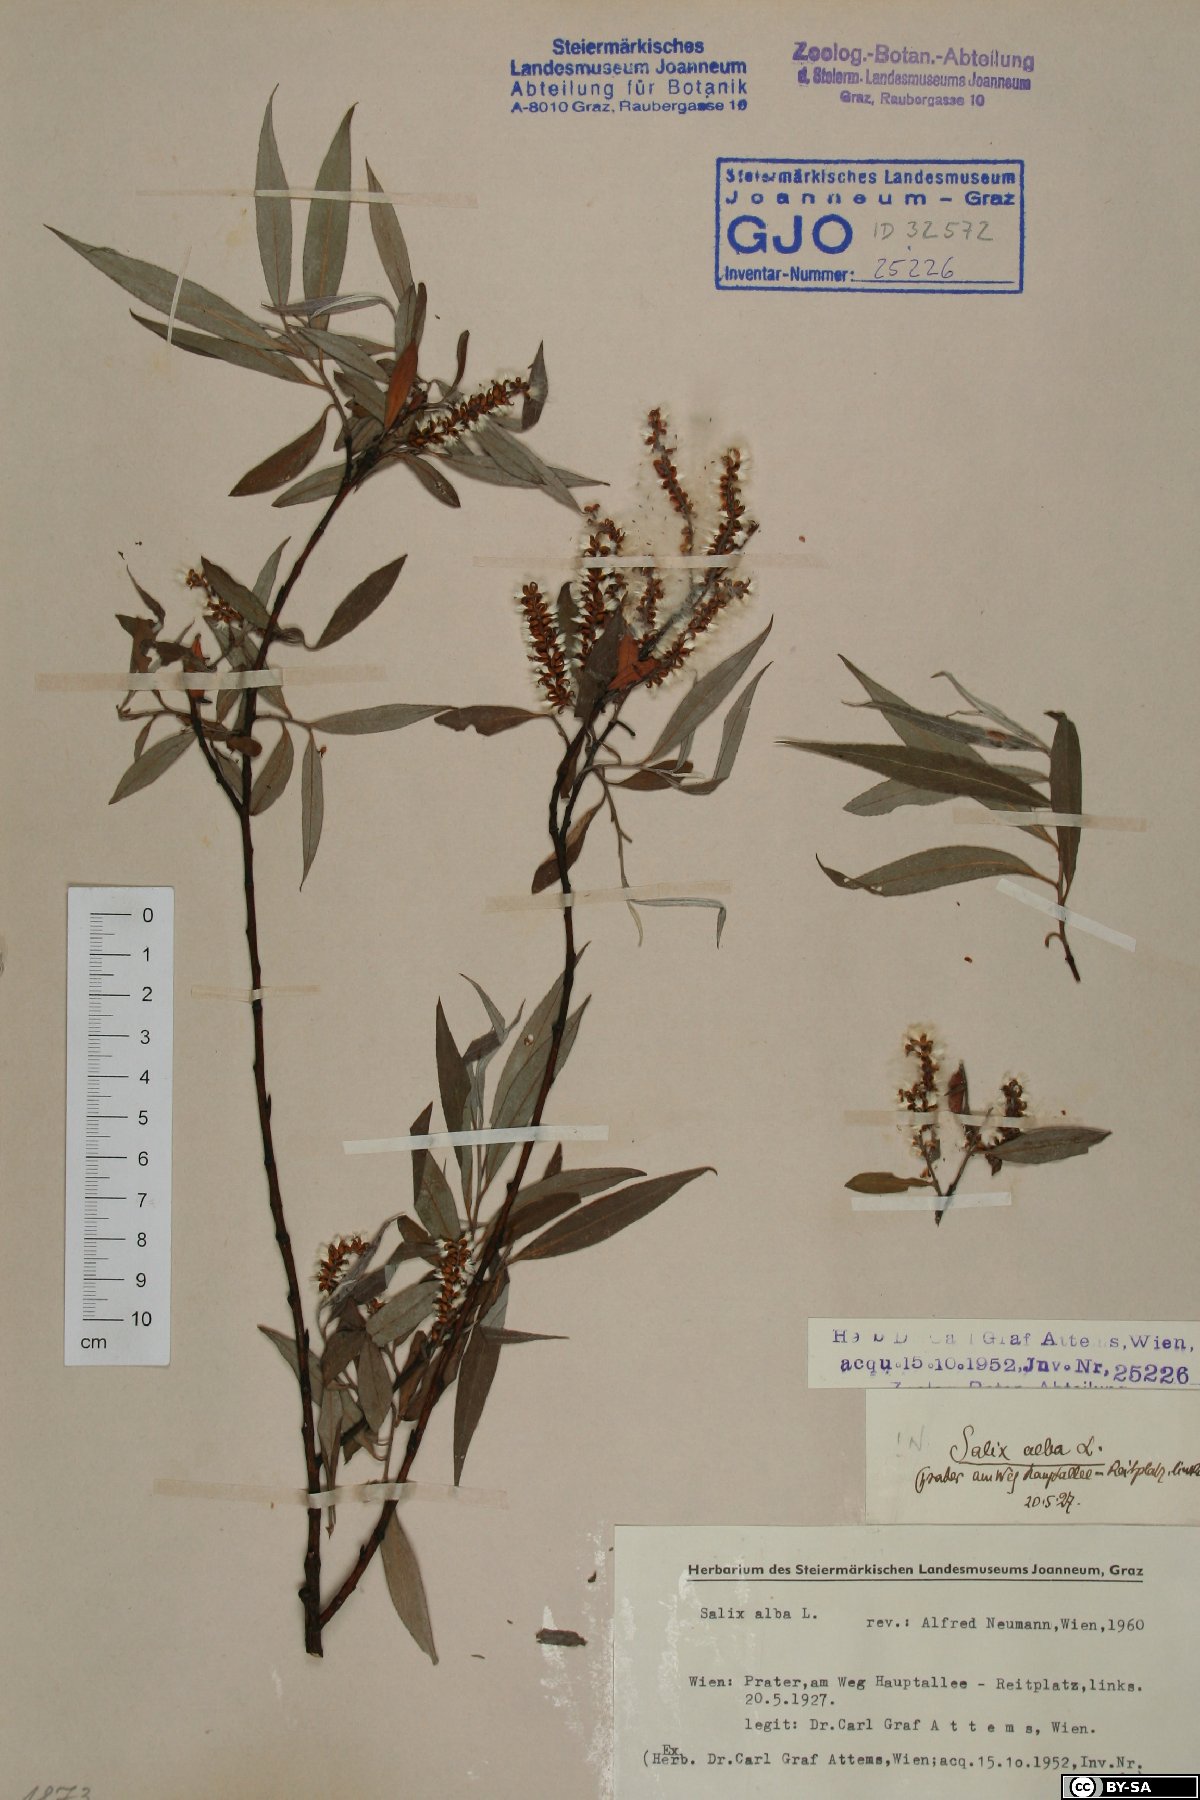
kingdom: Plantae
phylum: Tracheophyta
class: Magnoliopsida
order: Malpighiales
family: Salicaceae
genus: Salix
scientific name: Salix alba
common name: White willow
